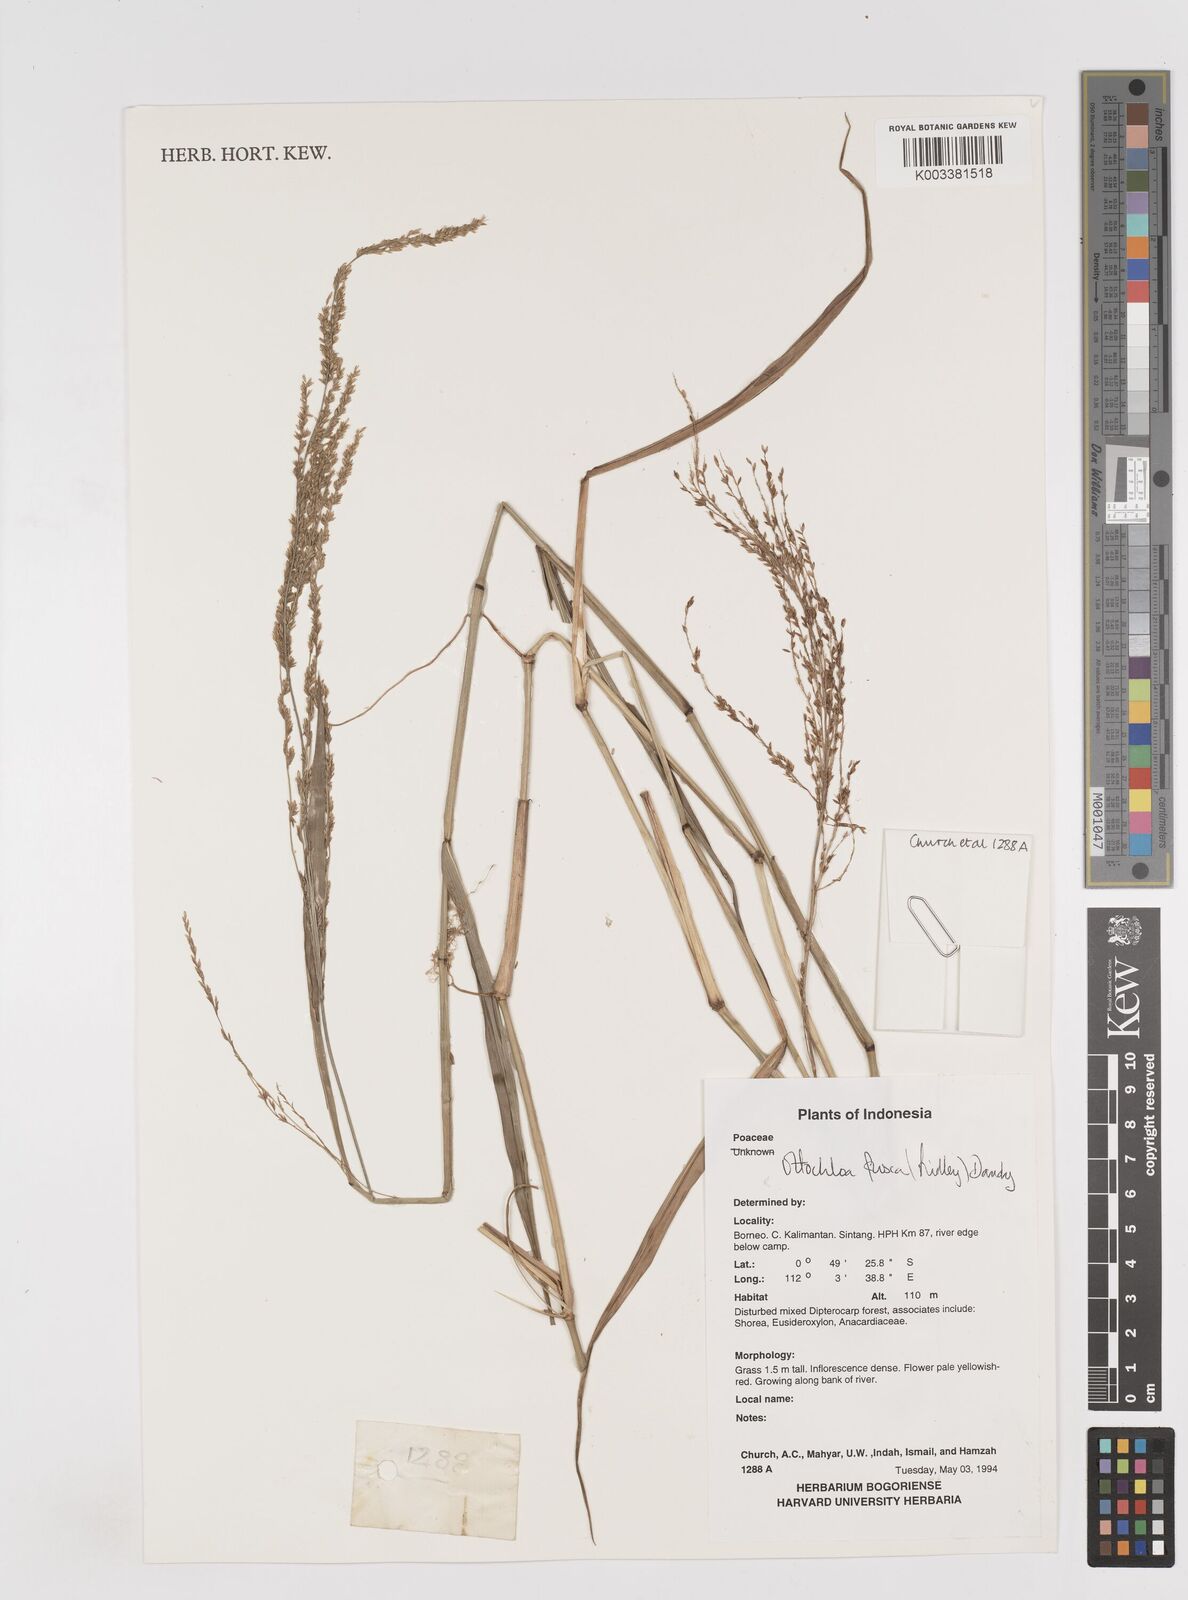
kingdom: Plantae
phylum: Tracheophyta
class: Liliopsida
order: Poales
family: Poaceae
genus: Ottochloa
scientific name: Ottochloa nodosa
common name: Slender-panic grass
